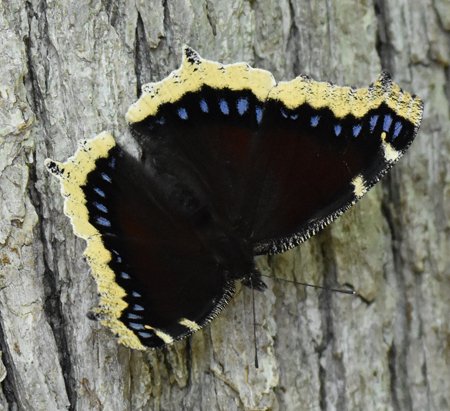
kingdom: Animalia
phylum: Arthropoda
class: Insecta
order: Lepidoptera
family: Nymphalidae
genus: Nymphalis
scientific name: Nymphalis antiopa
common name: Mourning Cloak
